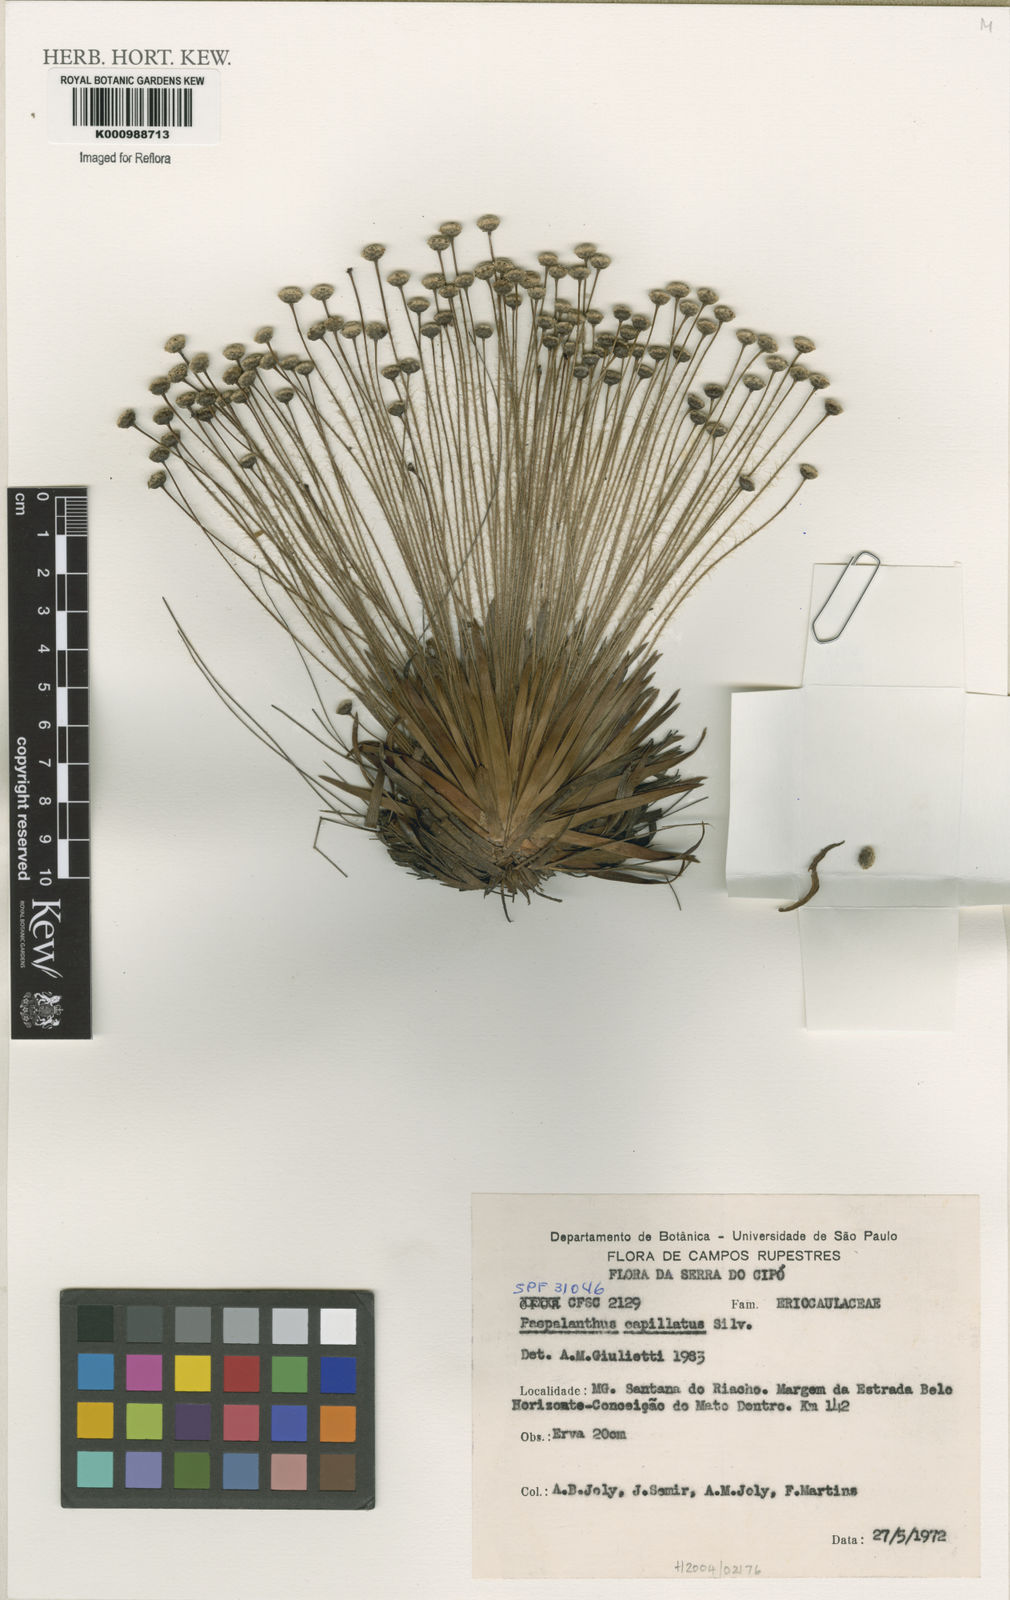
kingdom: Plantae
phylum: Tracheophyta
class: Liliopsida
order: Poales
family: Eriocaulaceae
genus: Paepalanthus
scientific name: Paepalanthus capitatus
